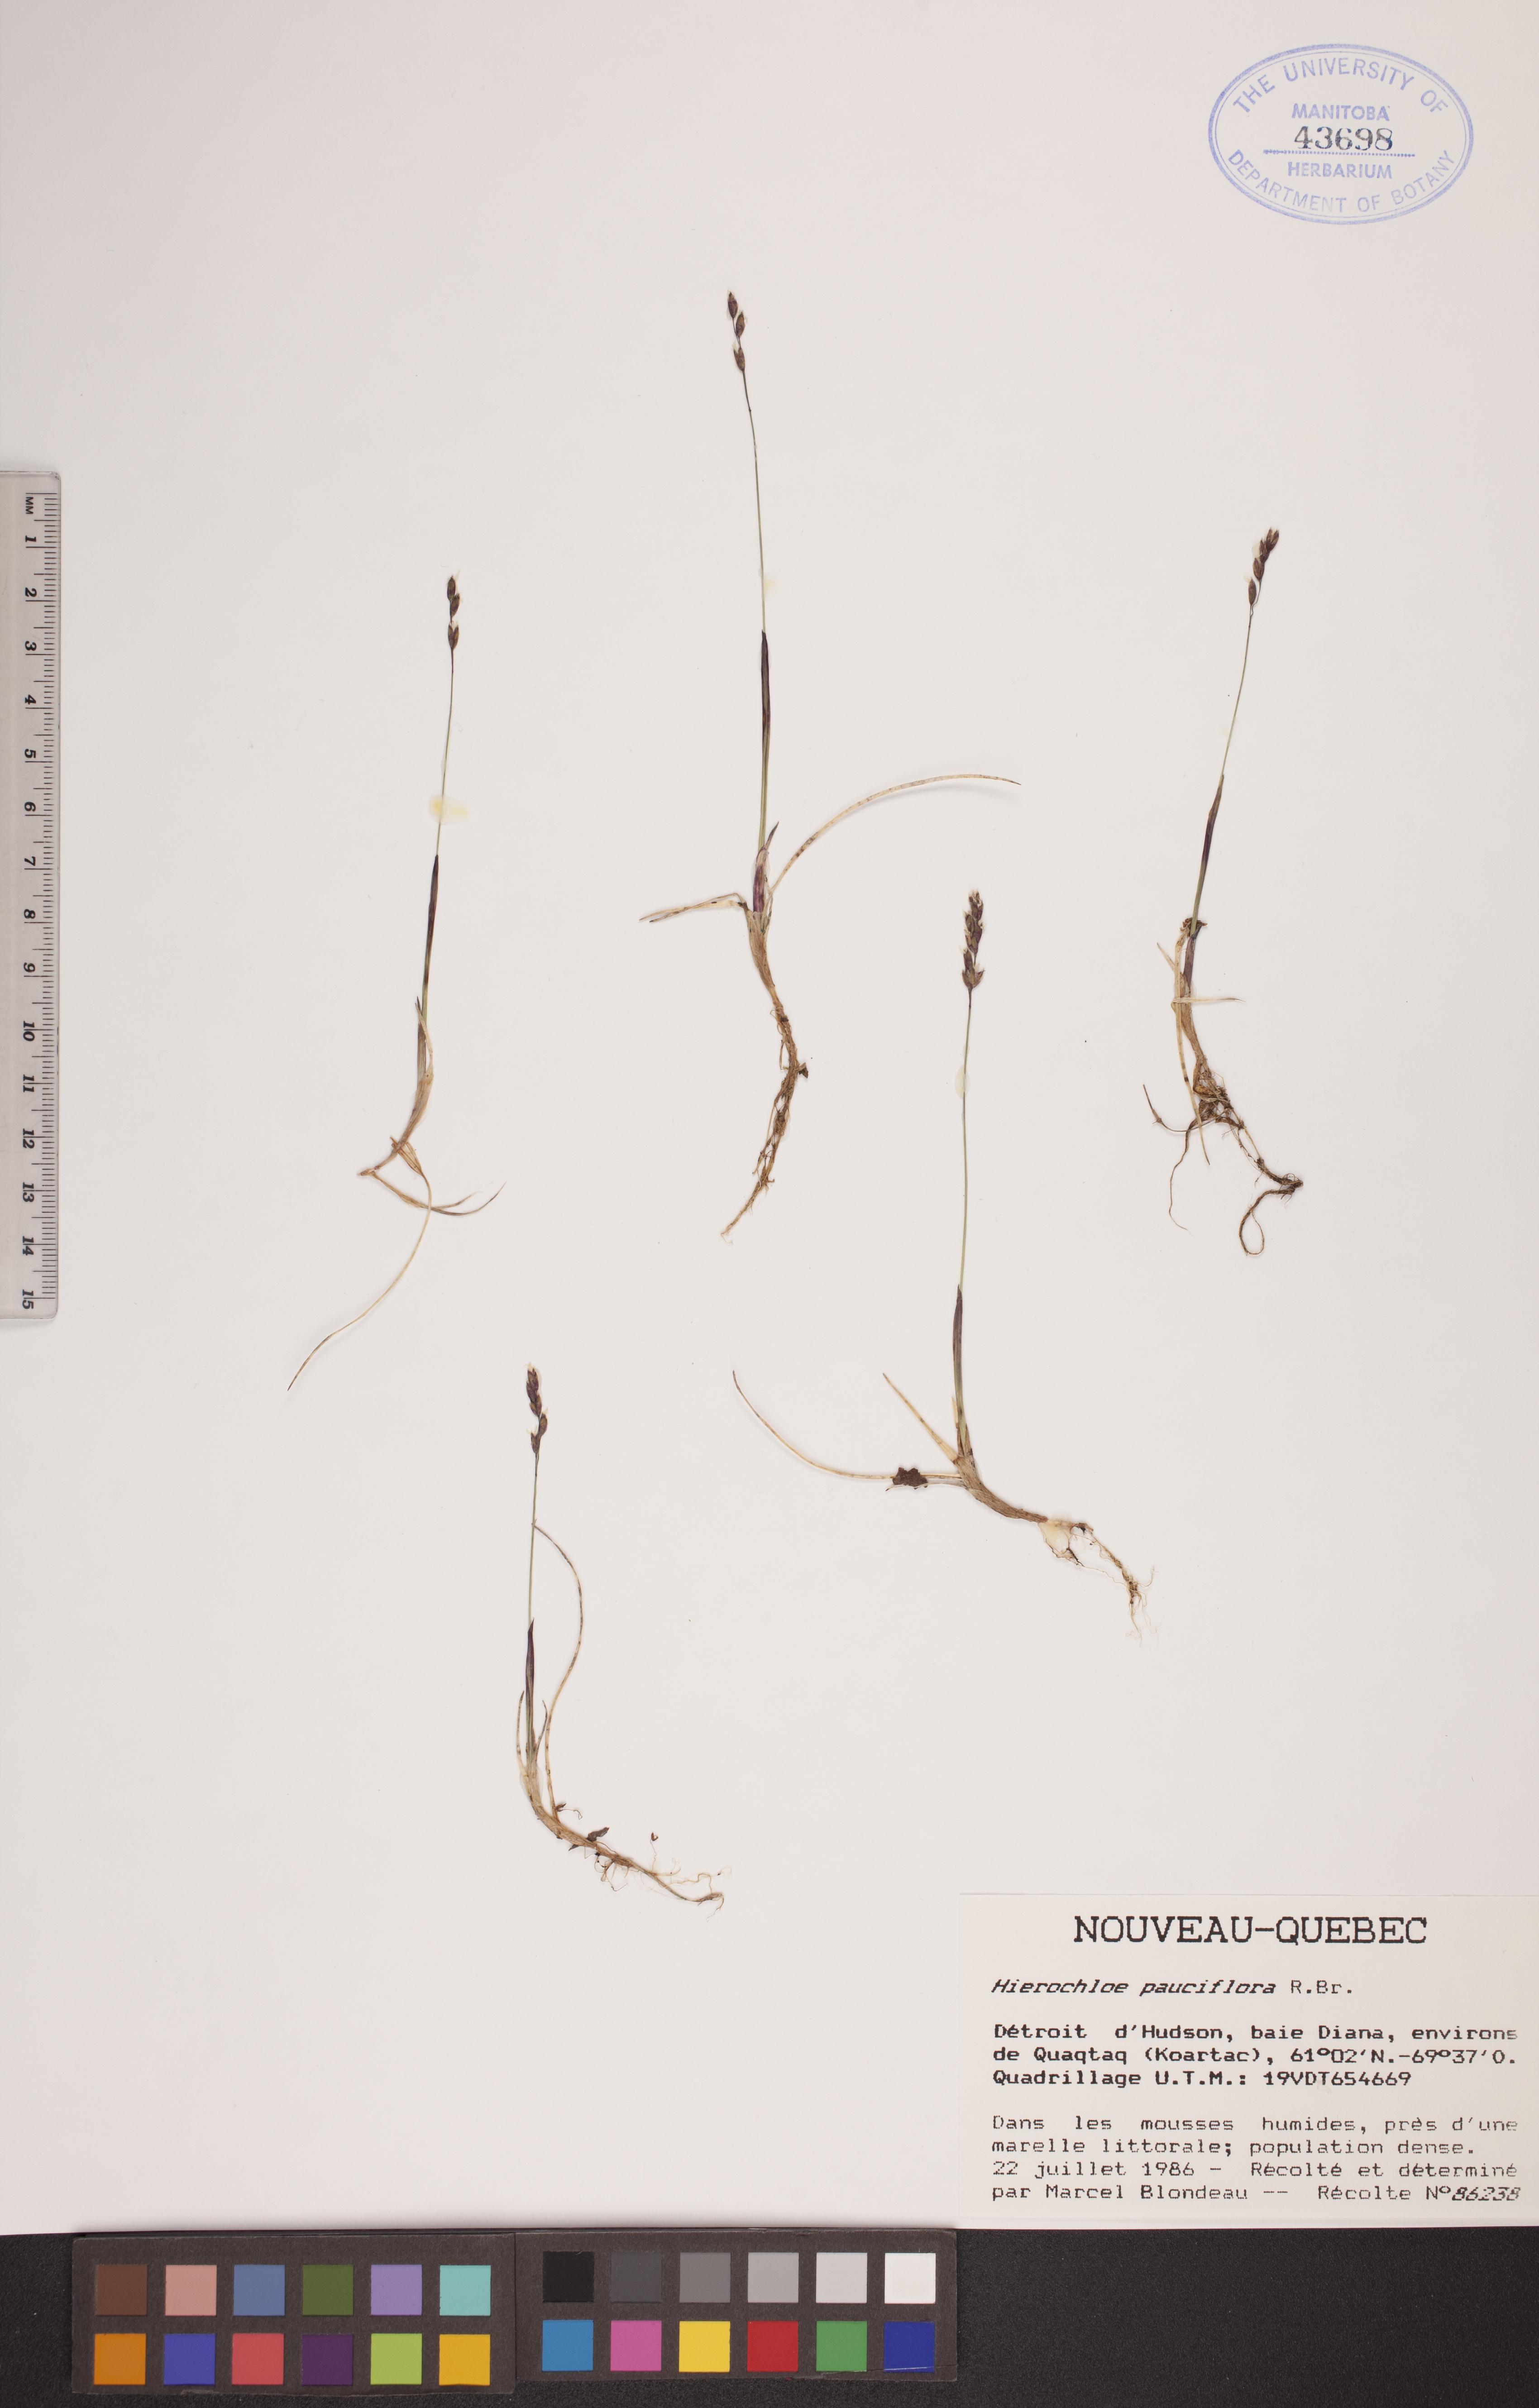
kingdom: Plantae
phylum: Tracheophyta
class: Liliopsida
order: Poales
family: Poaceae
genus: Anthoxanthum
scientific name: Anthoxanthum arcticum
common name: Arctic sweetgrass
